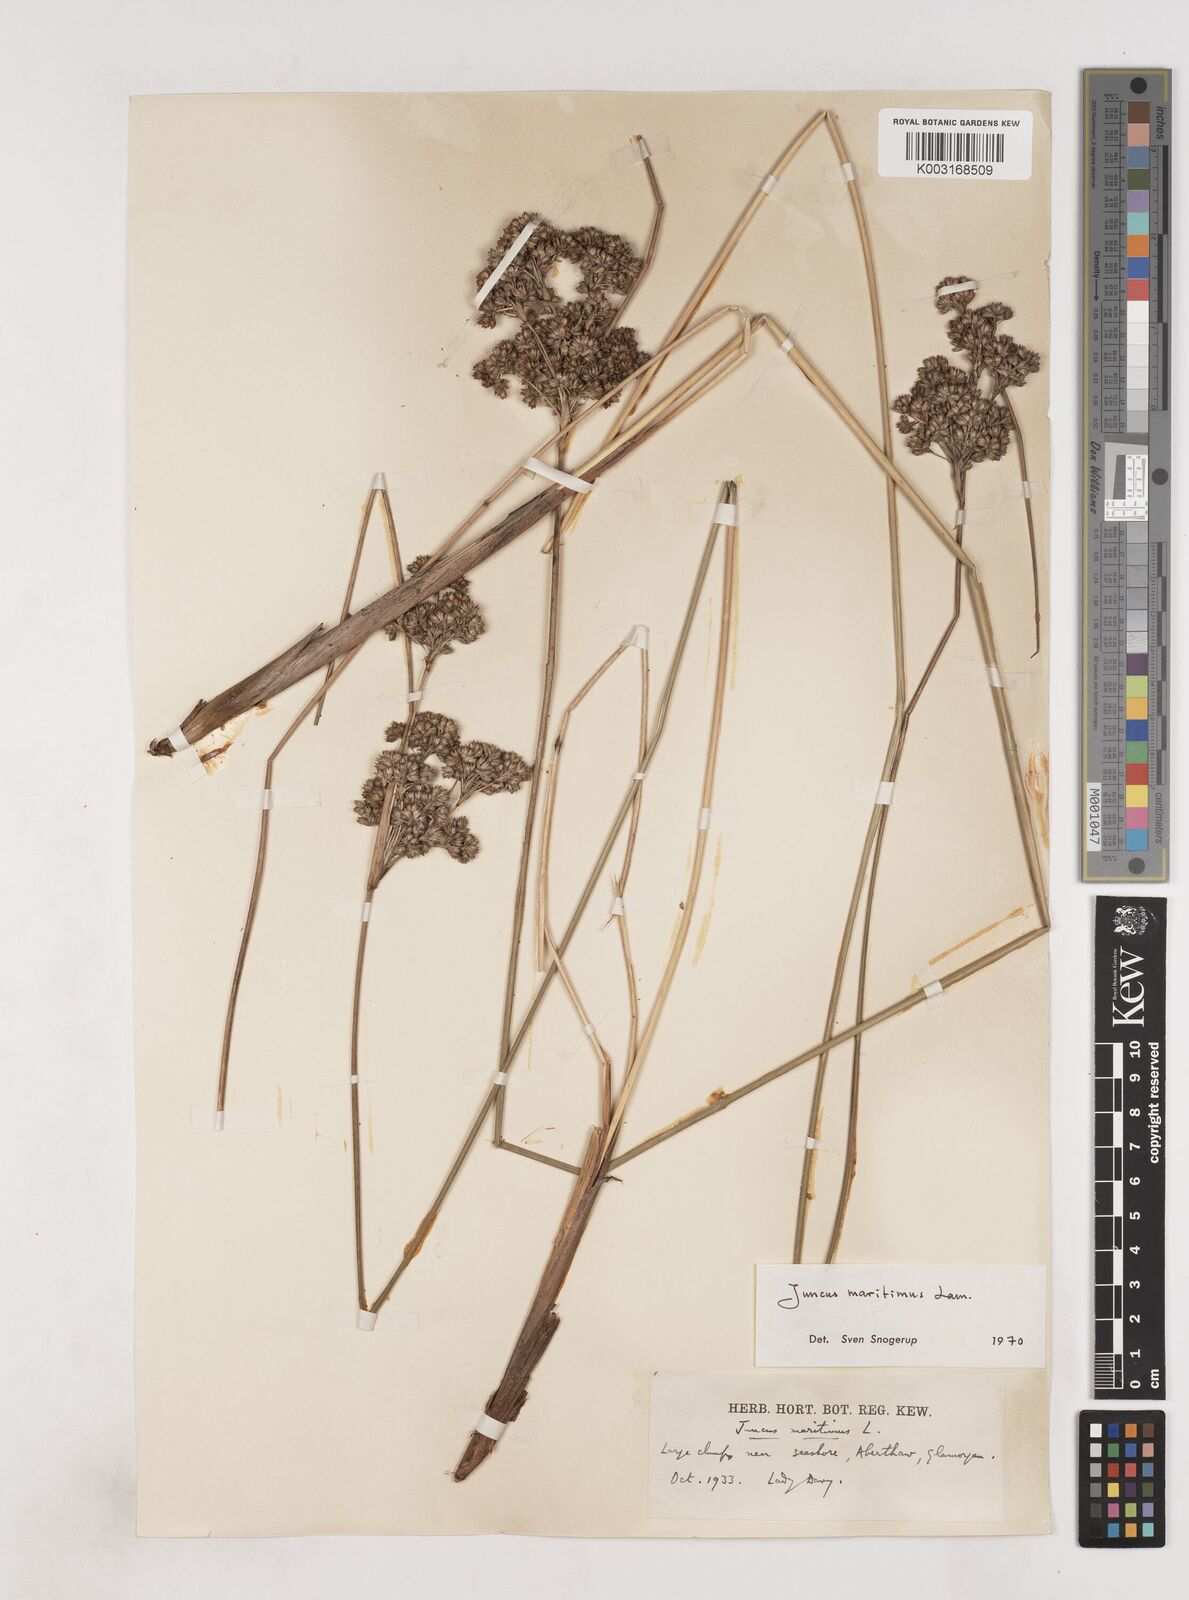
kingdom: Plantae
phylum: Tracheophyta
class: Liliopsida
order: Poales
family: Juncaceae
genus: Juncus
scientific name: Juncus maritimus
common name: Sea rush
